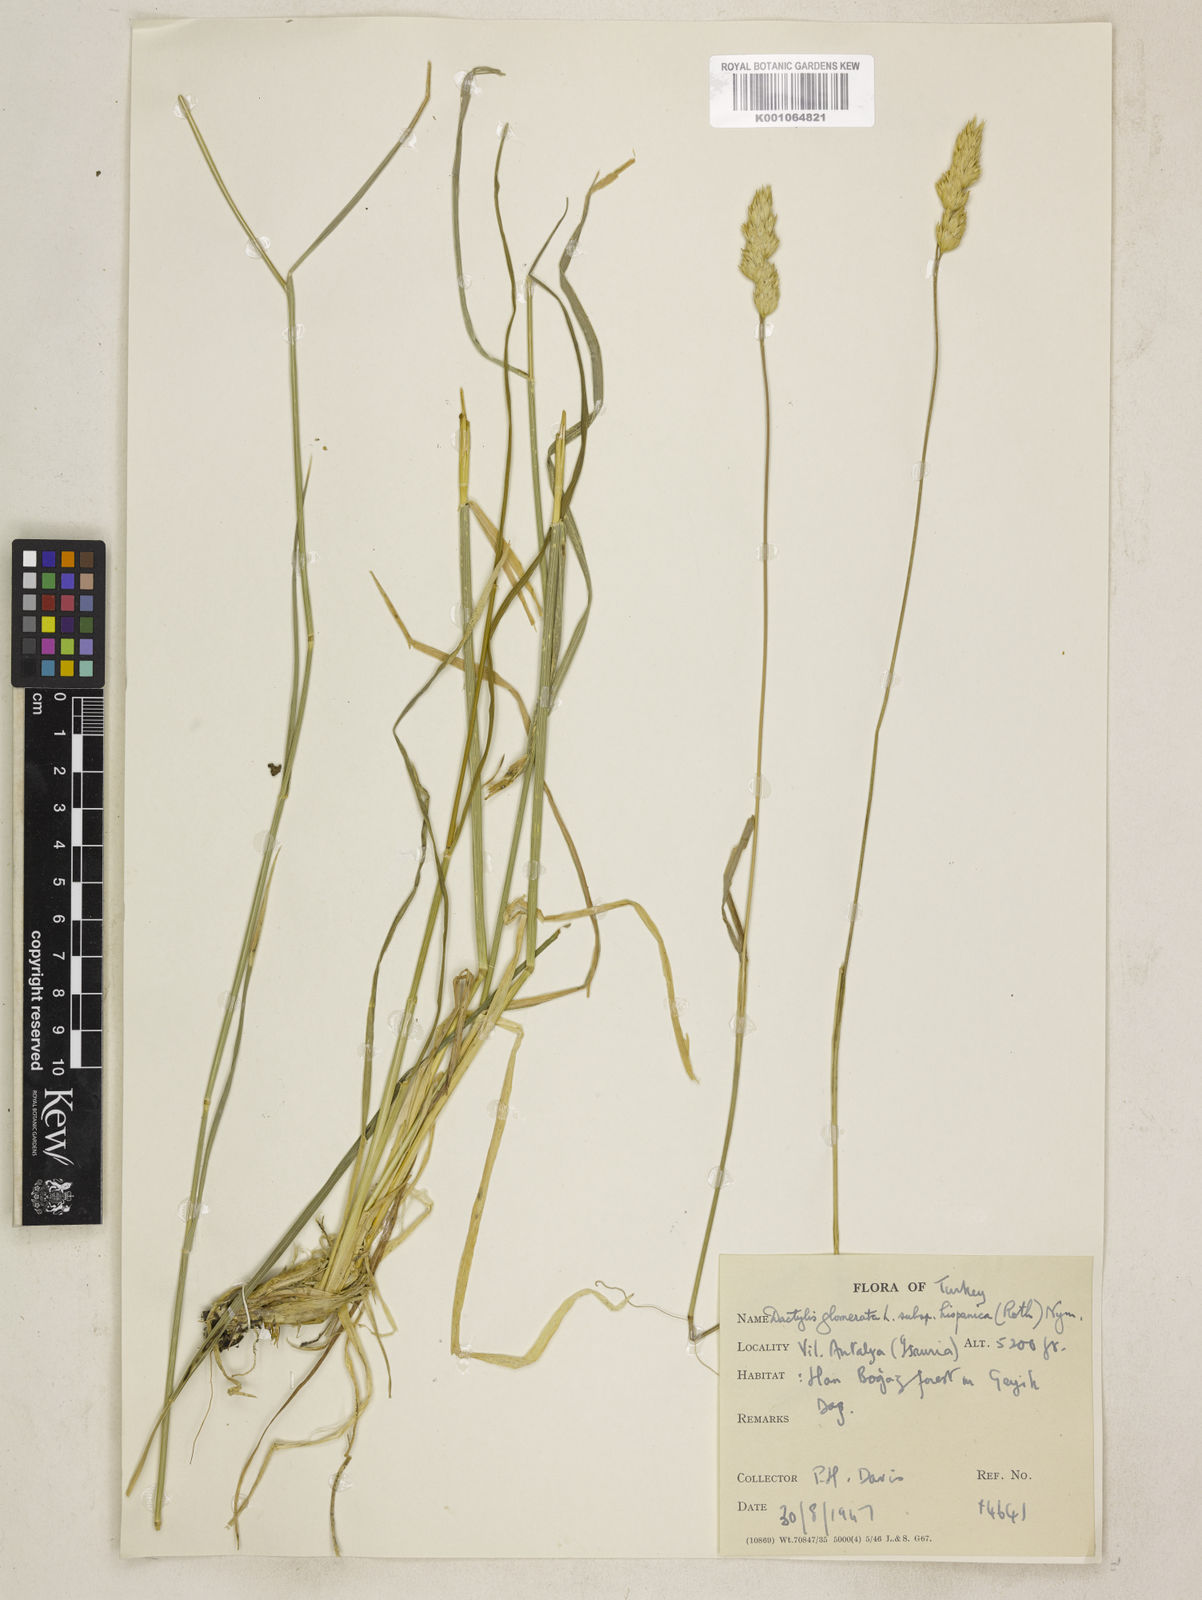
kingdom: Plantae
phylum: Tracheophyta
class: Liliopsida
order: Poales
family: Poaceae
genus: Dactylis
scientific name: Dactylis glomerata
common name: Orchardgrass
